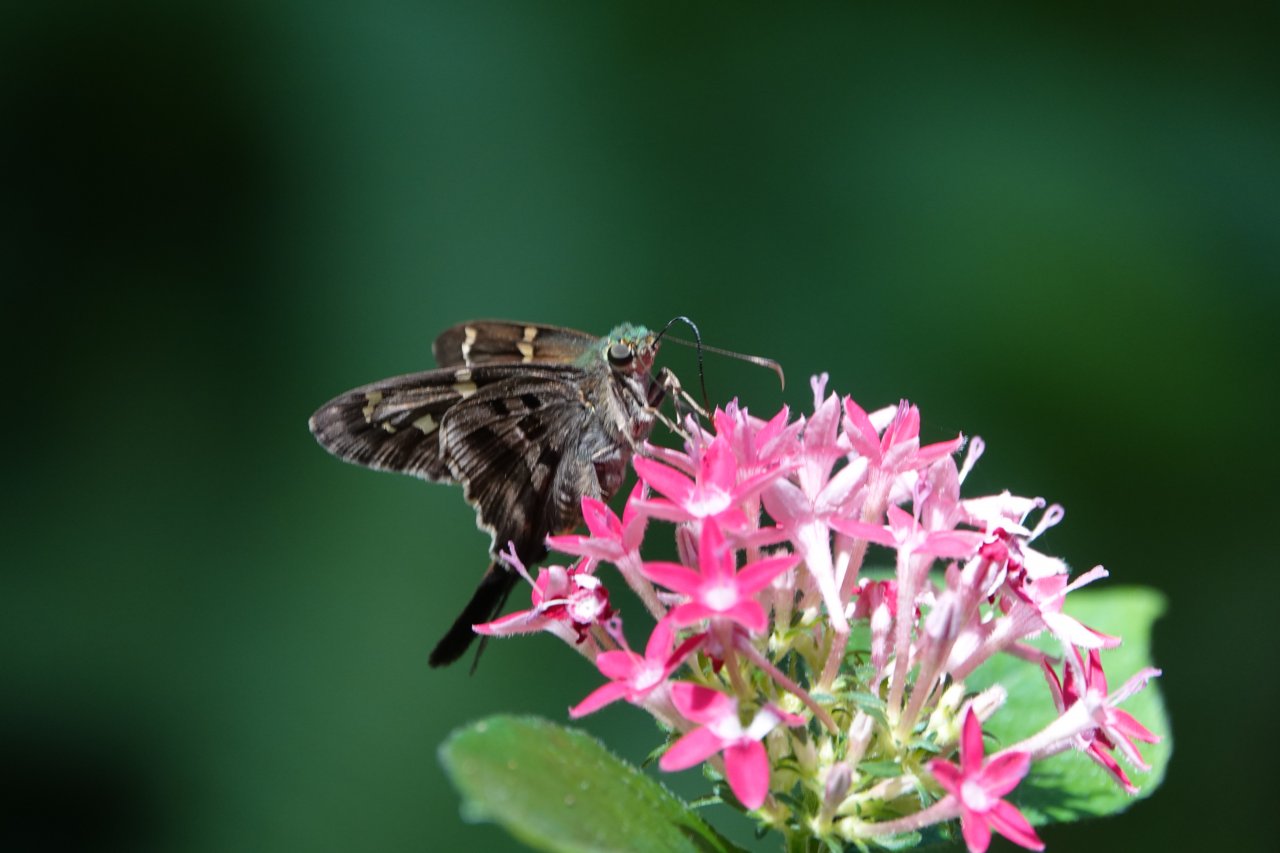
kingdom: Animalia
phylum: Arthropoda
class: Insecta
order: Lepidoptera
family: Hesperiidae
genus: Urbanus
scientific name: Urbanus proteus
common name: Long-tailed Skipper
